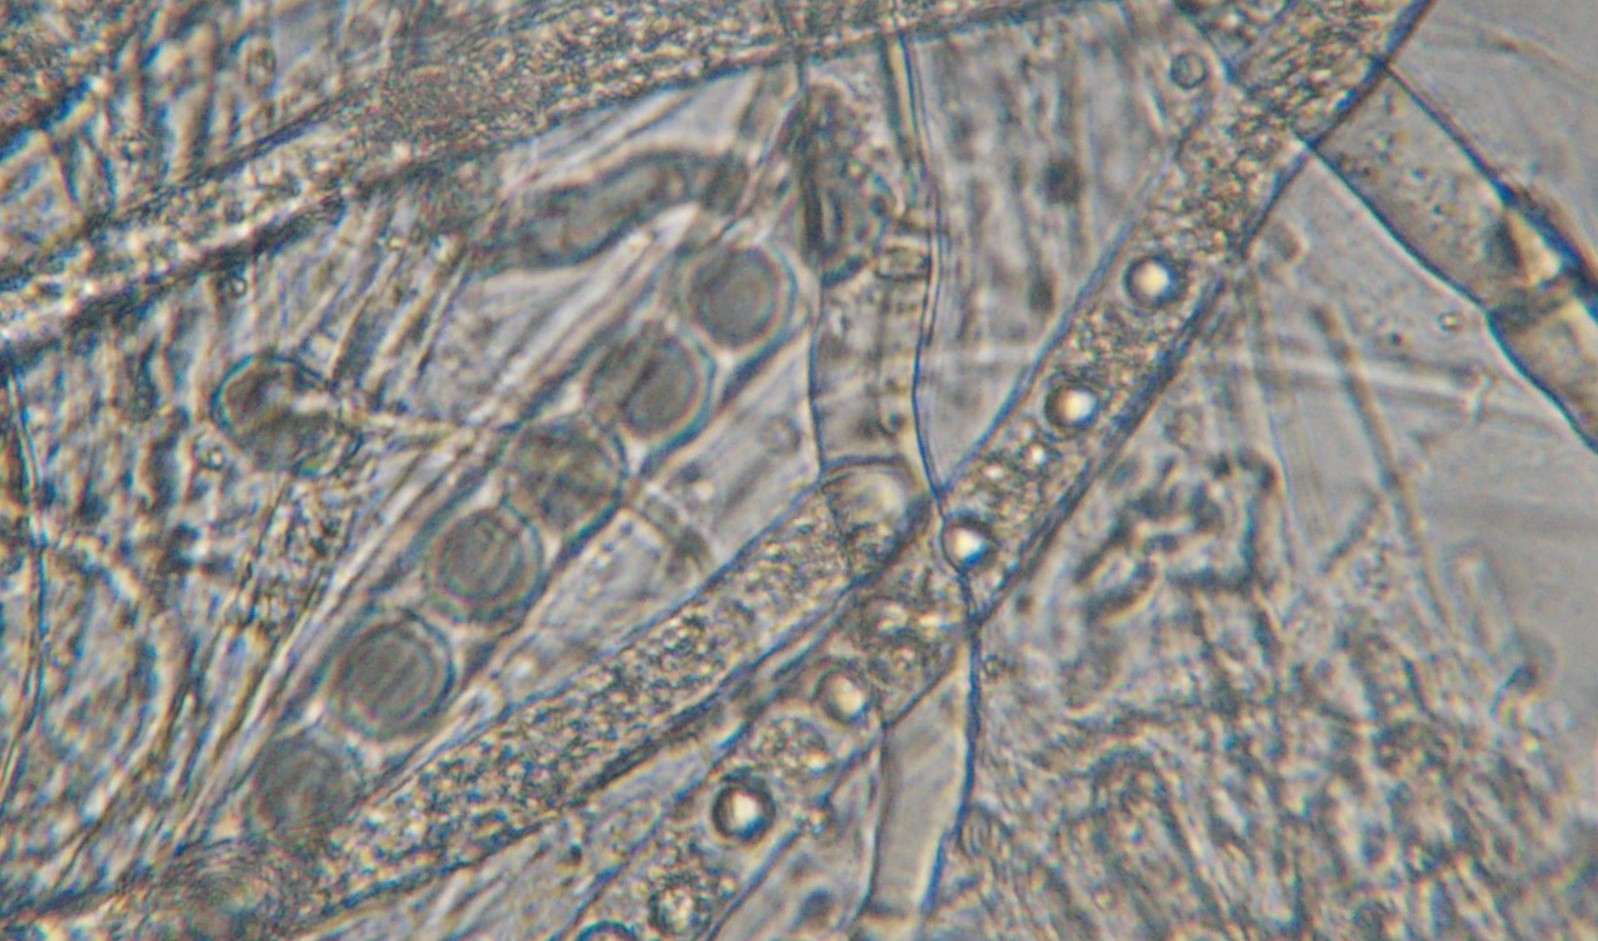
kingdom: Fungi
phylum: Ascomycota
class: Pezizomycetes
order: Pezizales
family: Helvellaceae
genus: Helvella
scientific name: Helvella acetabulum
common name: pokal-foldhat
